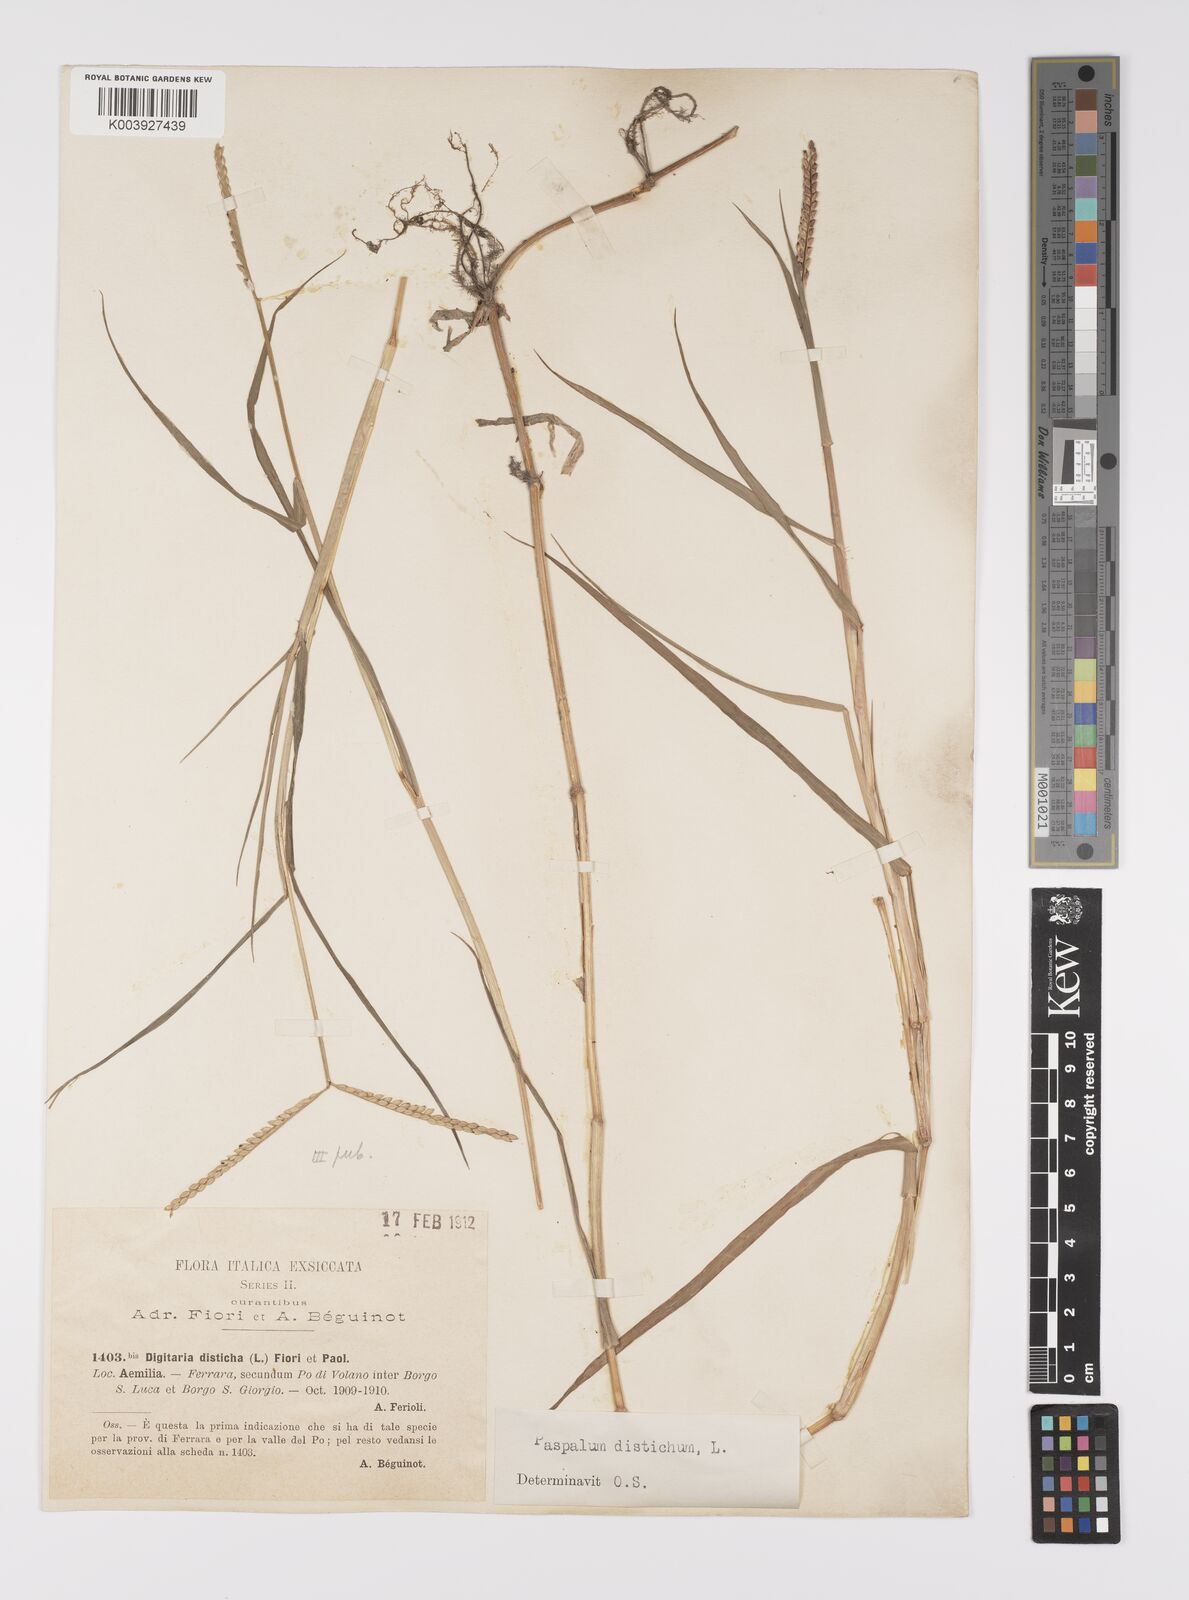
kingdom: Plantae
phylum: Tracheophyta
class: Liliopsida
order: Poales
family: Poaceae
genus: Paspalum
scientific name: Paspalum distichum
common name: Knotgrass
